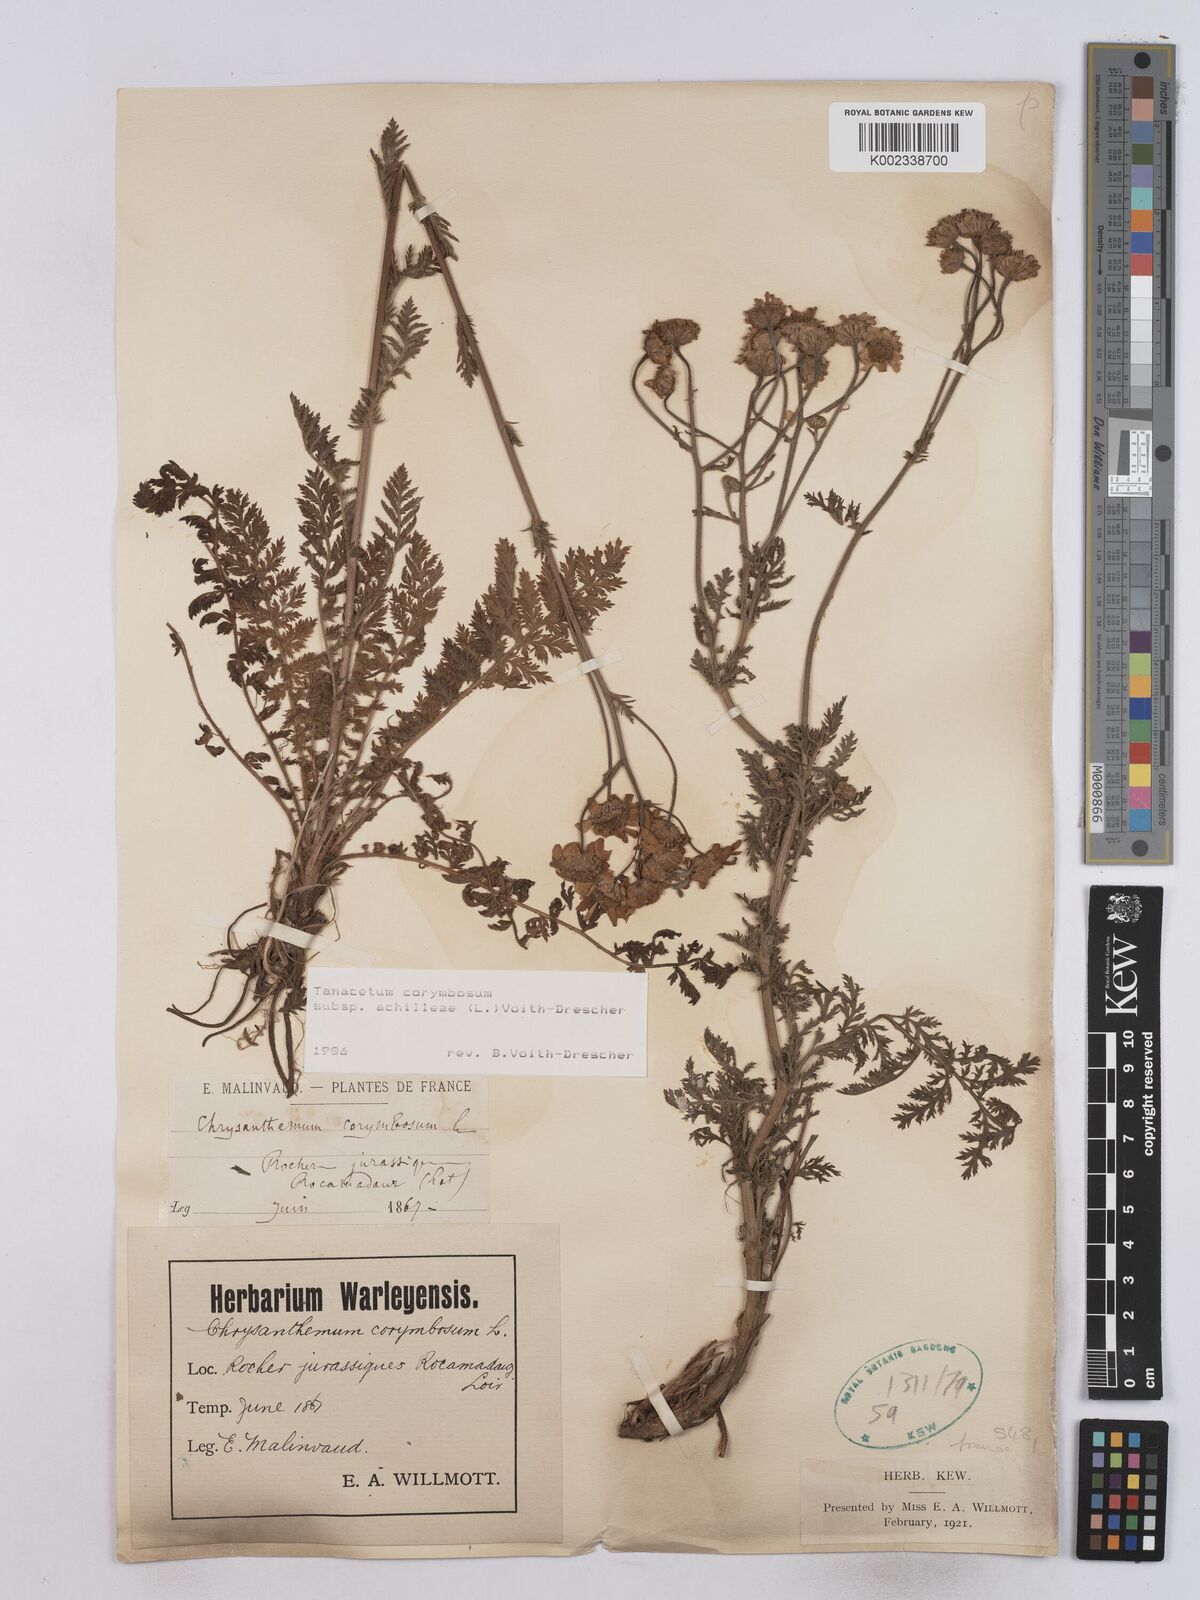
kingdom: Plantae
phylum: Tracheophyta
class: Magnoliopsida
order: Asterales
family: Asteraceae
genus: Tanacetum
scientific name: Tanacetum corymbosum
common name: Scentless feverfew
